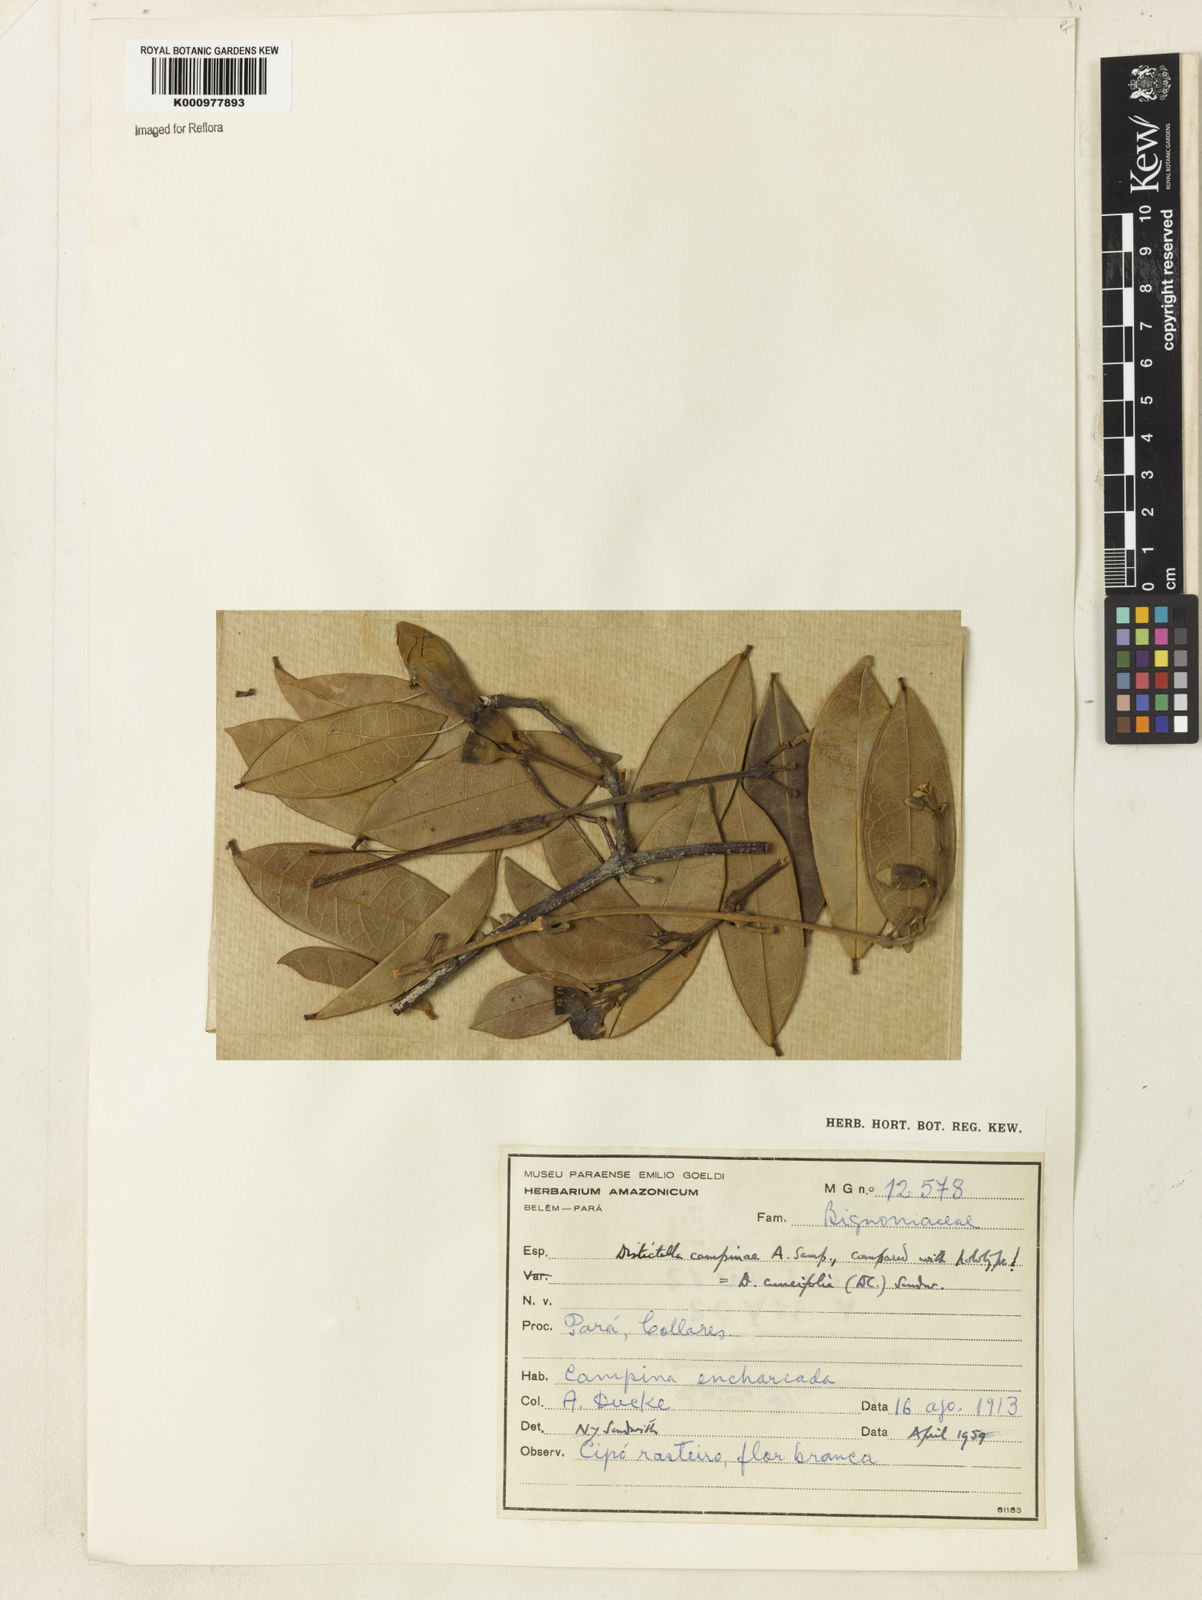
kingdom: Plantae
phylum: Tracheophyta
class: Magnoliopsida
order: Lamiales
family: Bignoniaceae
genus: Amphilophium
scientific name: Amphilophium cuneifolium
